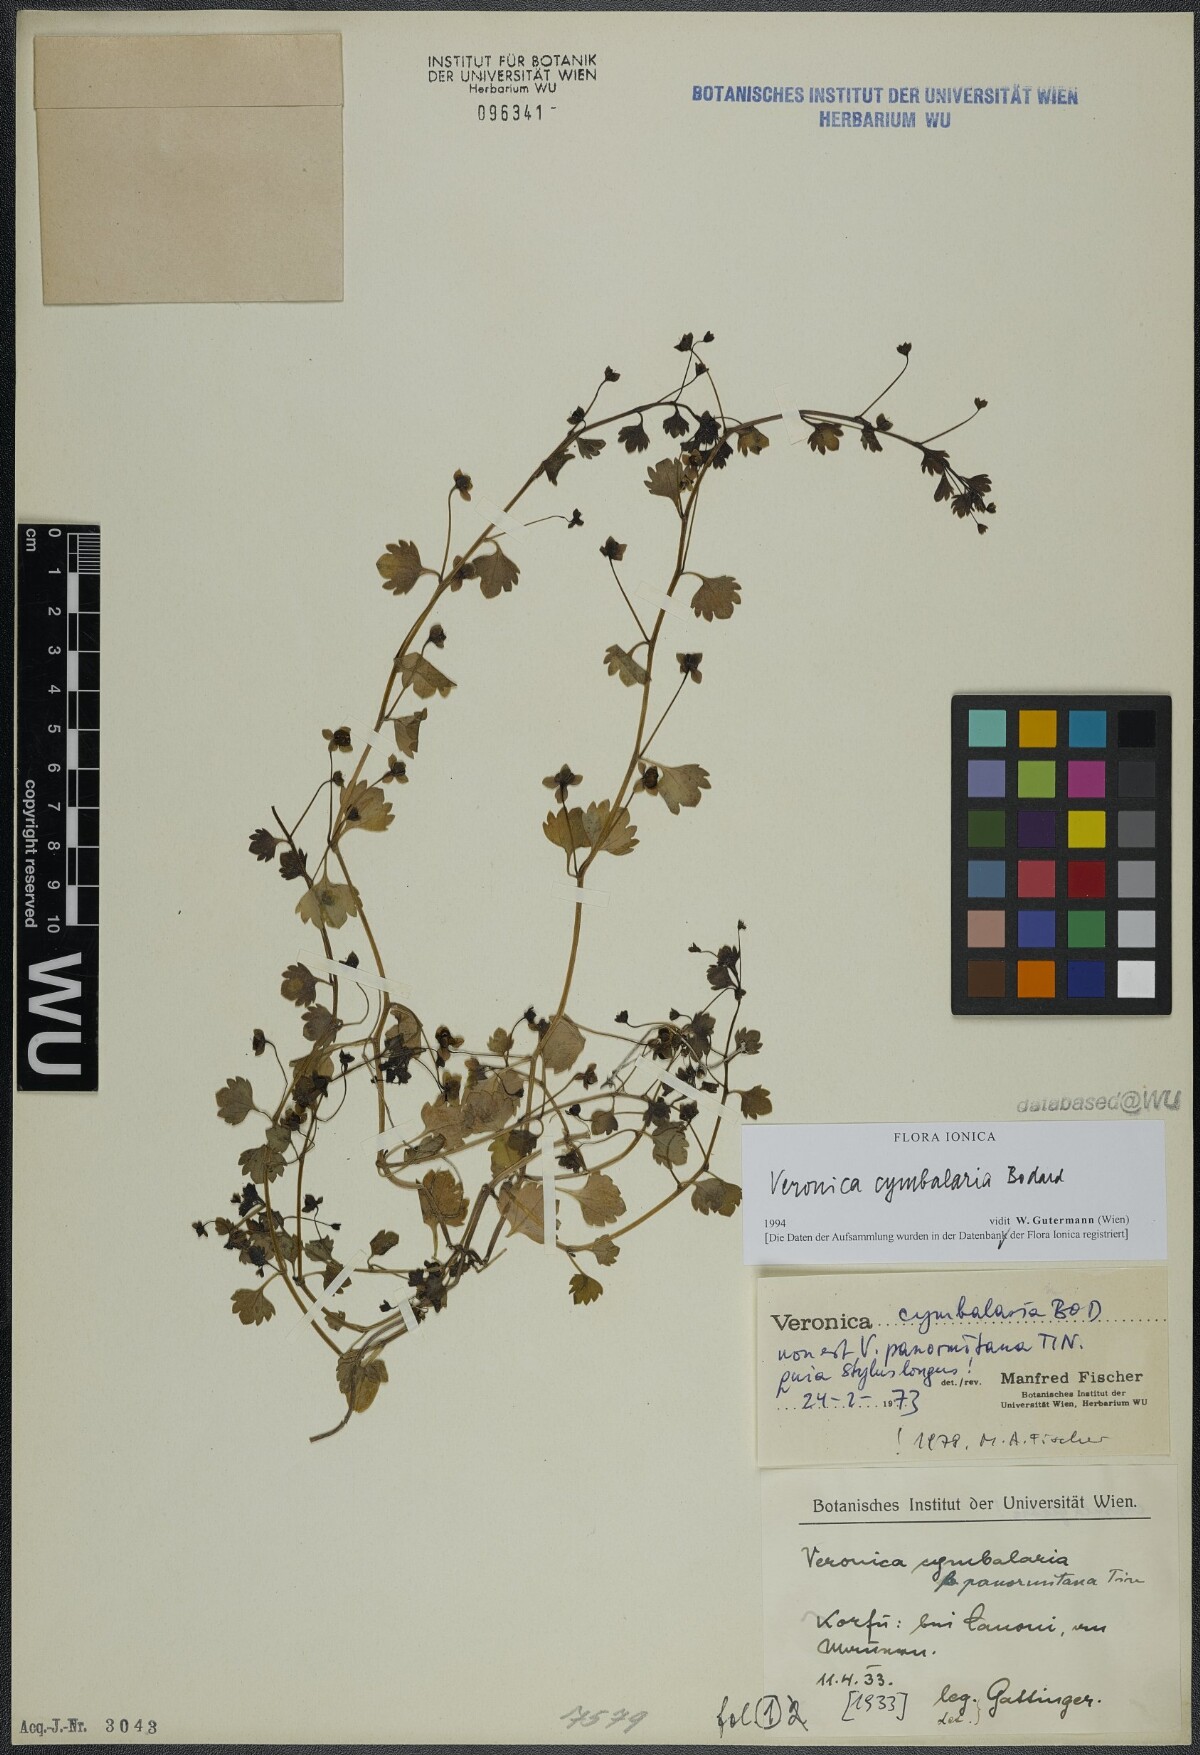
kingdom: Plantae
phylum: Tracheophyta
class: Magnoliopsida
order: Lamiales
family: Plantaginaceae
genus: Veronica
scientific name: Veronica cymbalaria
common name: Pale speedwell
